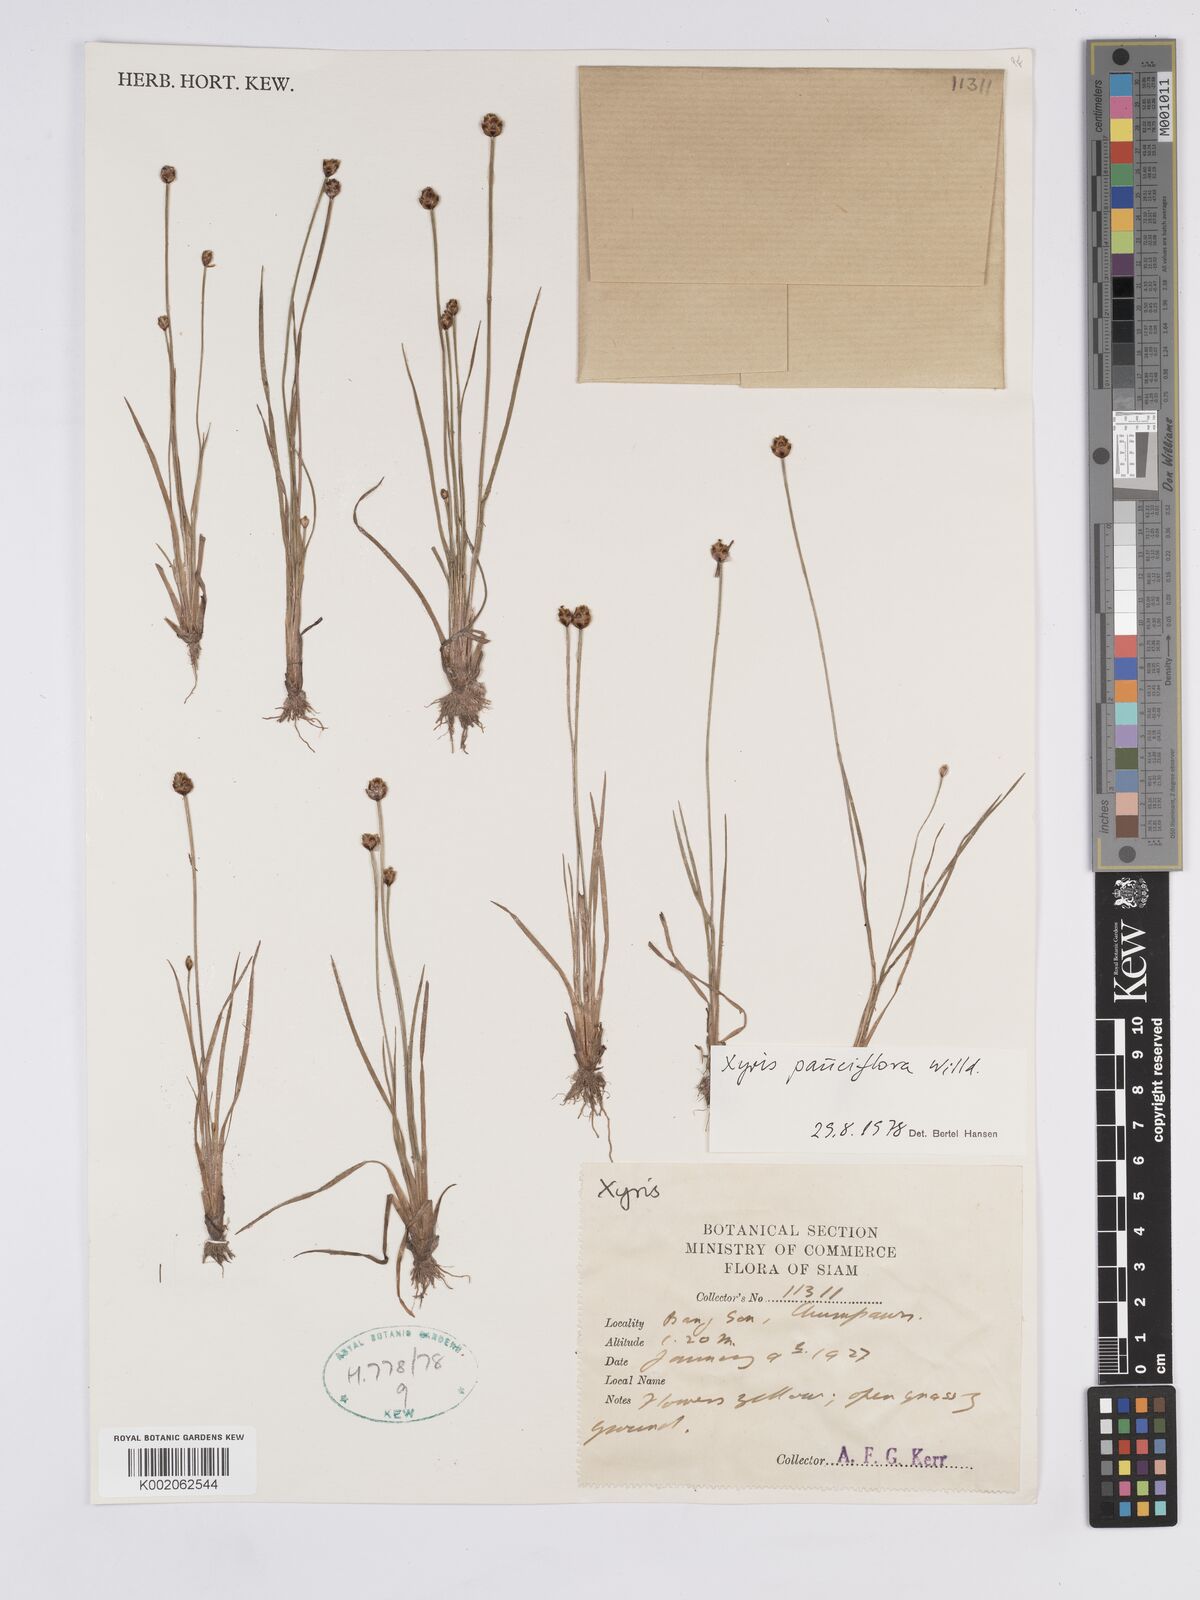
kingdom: Plantae
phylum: Tracheophyta
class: Liliopsida
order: Poales
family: Xyridaceae
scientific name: Xyridaceae
